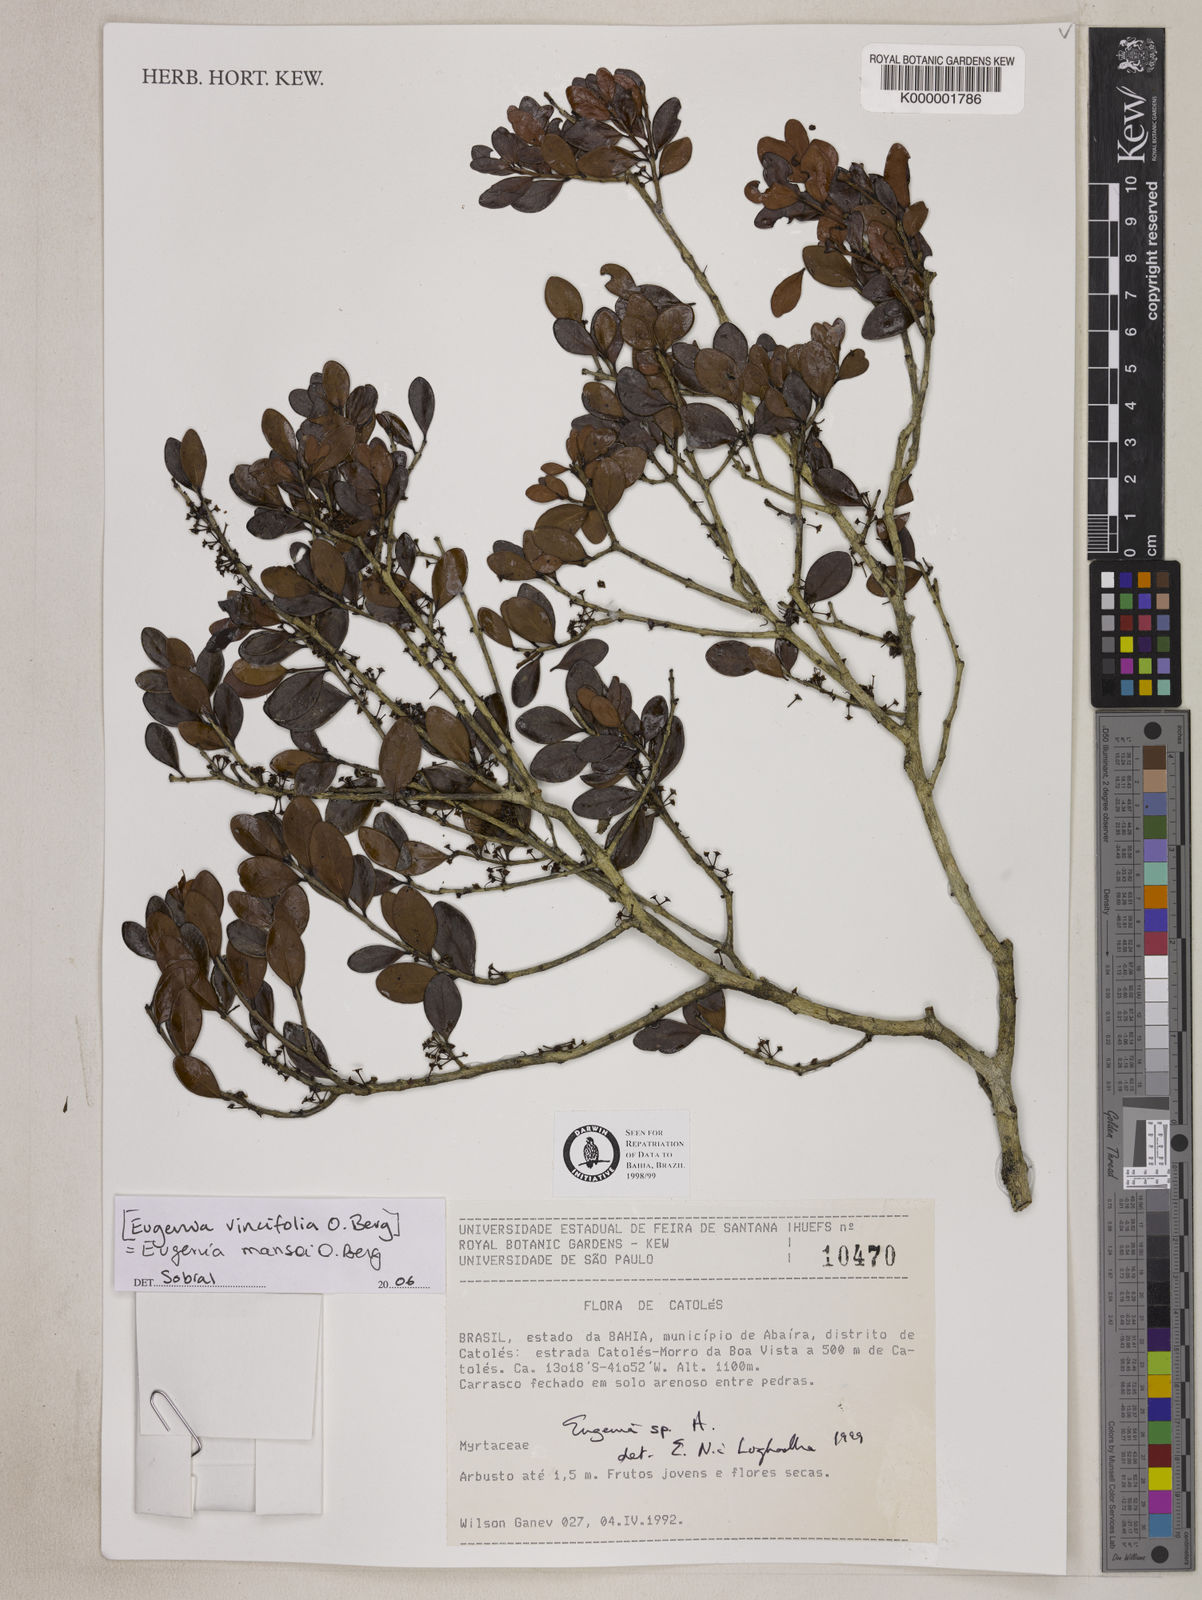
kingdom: Plantae
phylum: Tracheophyta
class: Magnoliopsida
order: Myrtales
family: Myrtaceae
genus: Eugenia
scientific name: Eugenia
